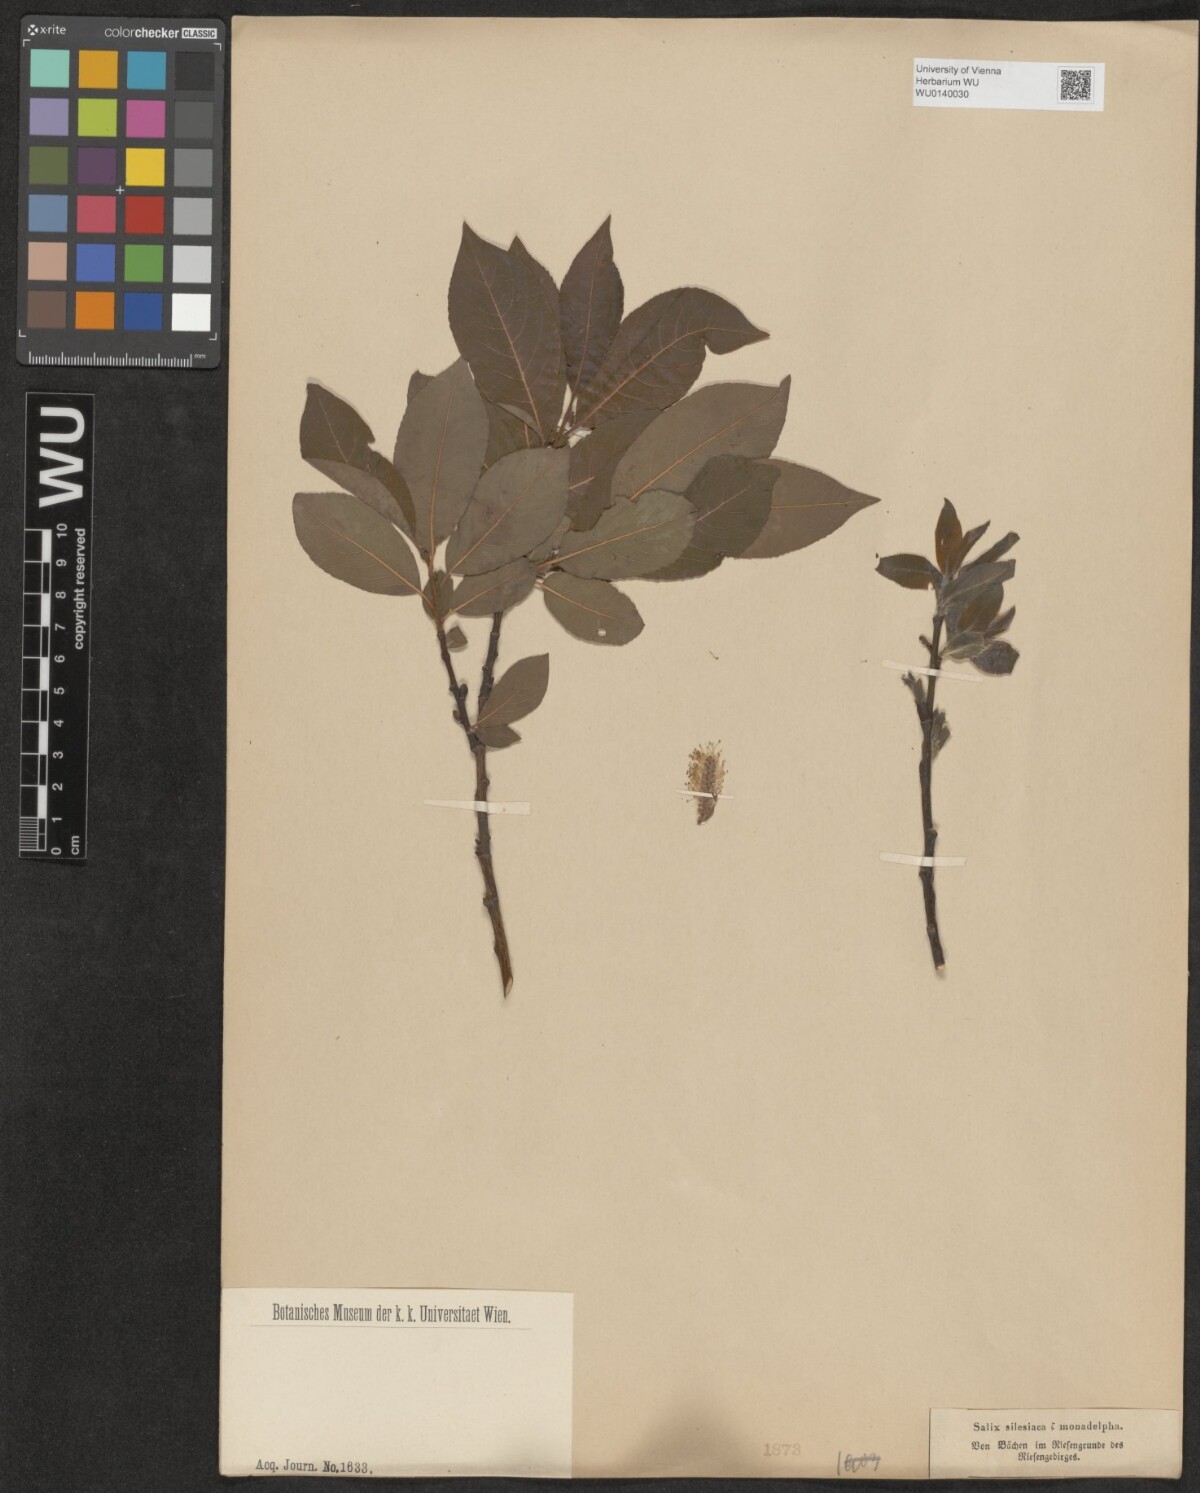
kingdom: Plantae
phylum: Tracheophyta
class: Magnoliopsida
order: Malpighiales
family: Salicaceae
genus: Salix
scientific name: Salix silesiaca
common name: Silesian willow
